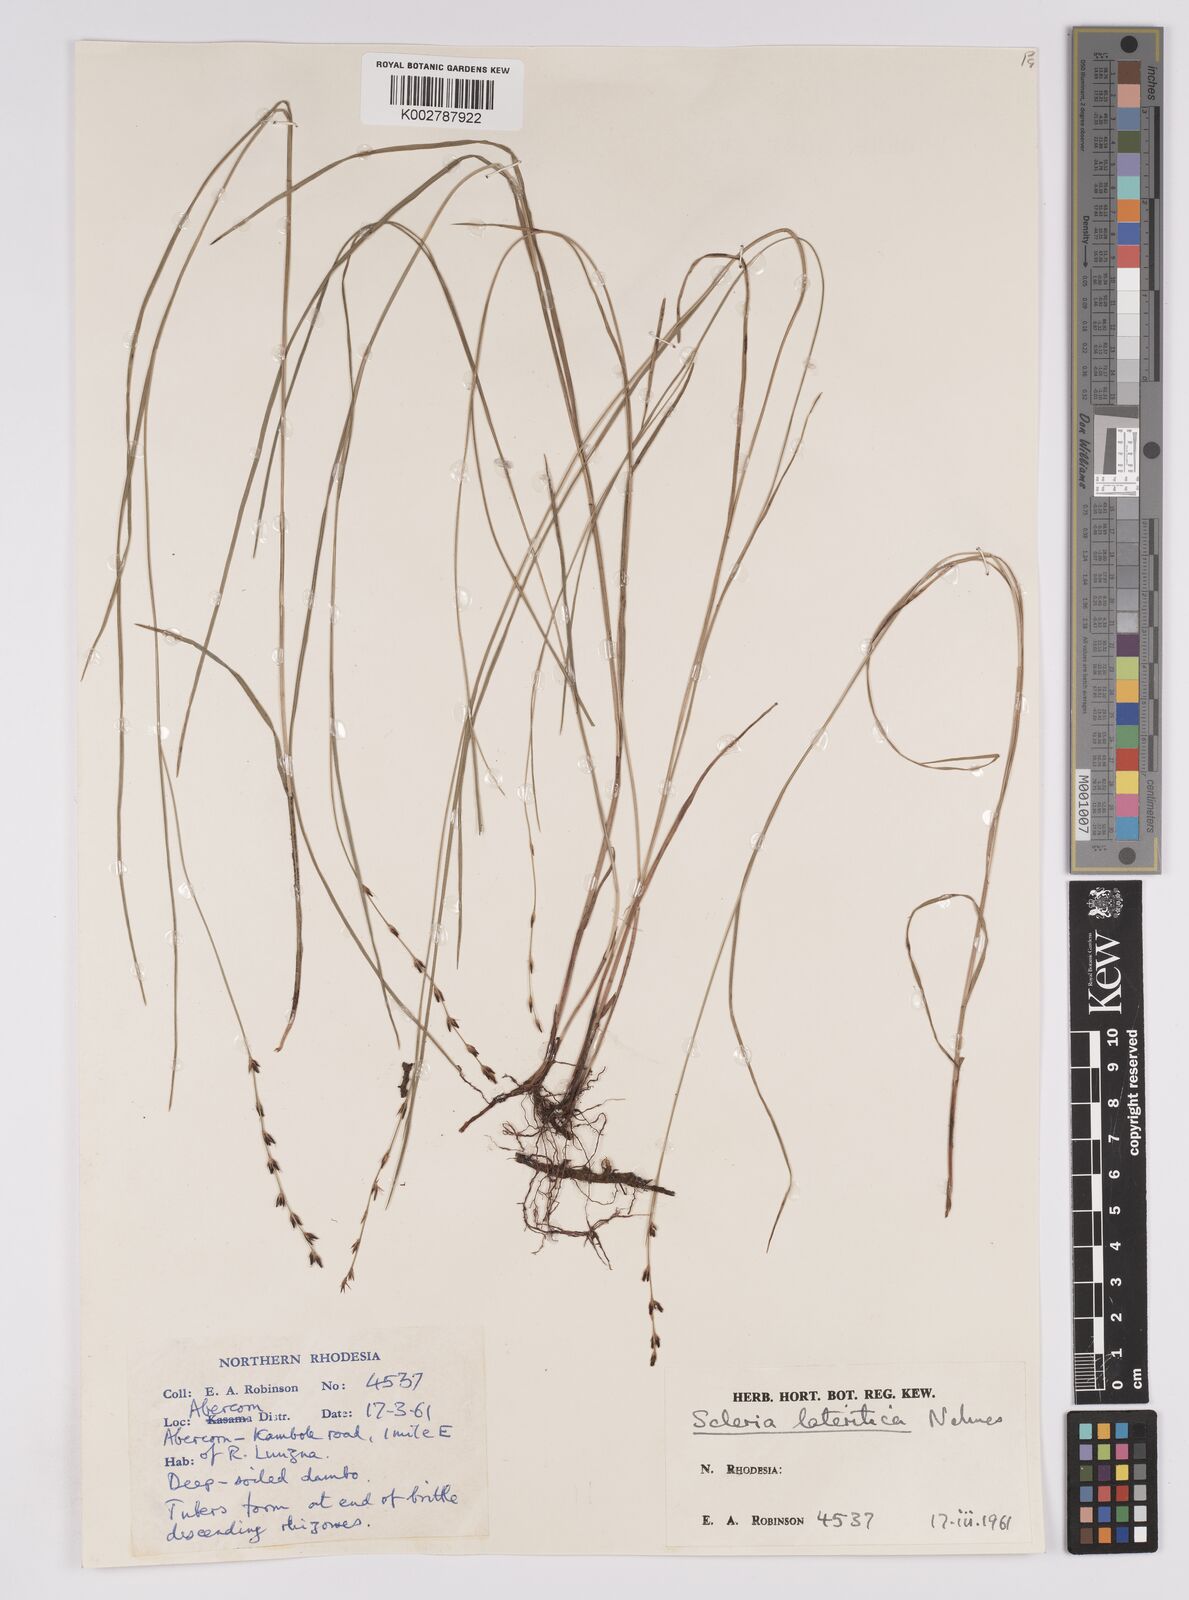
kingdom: Plantae
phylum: Tracheophyta
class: Liliopsida
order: Poales
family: Cyperaceae
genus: Scleria
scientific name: Scleria lateritica
